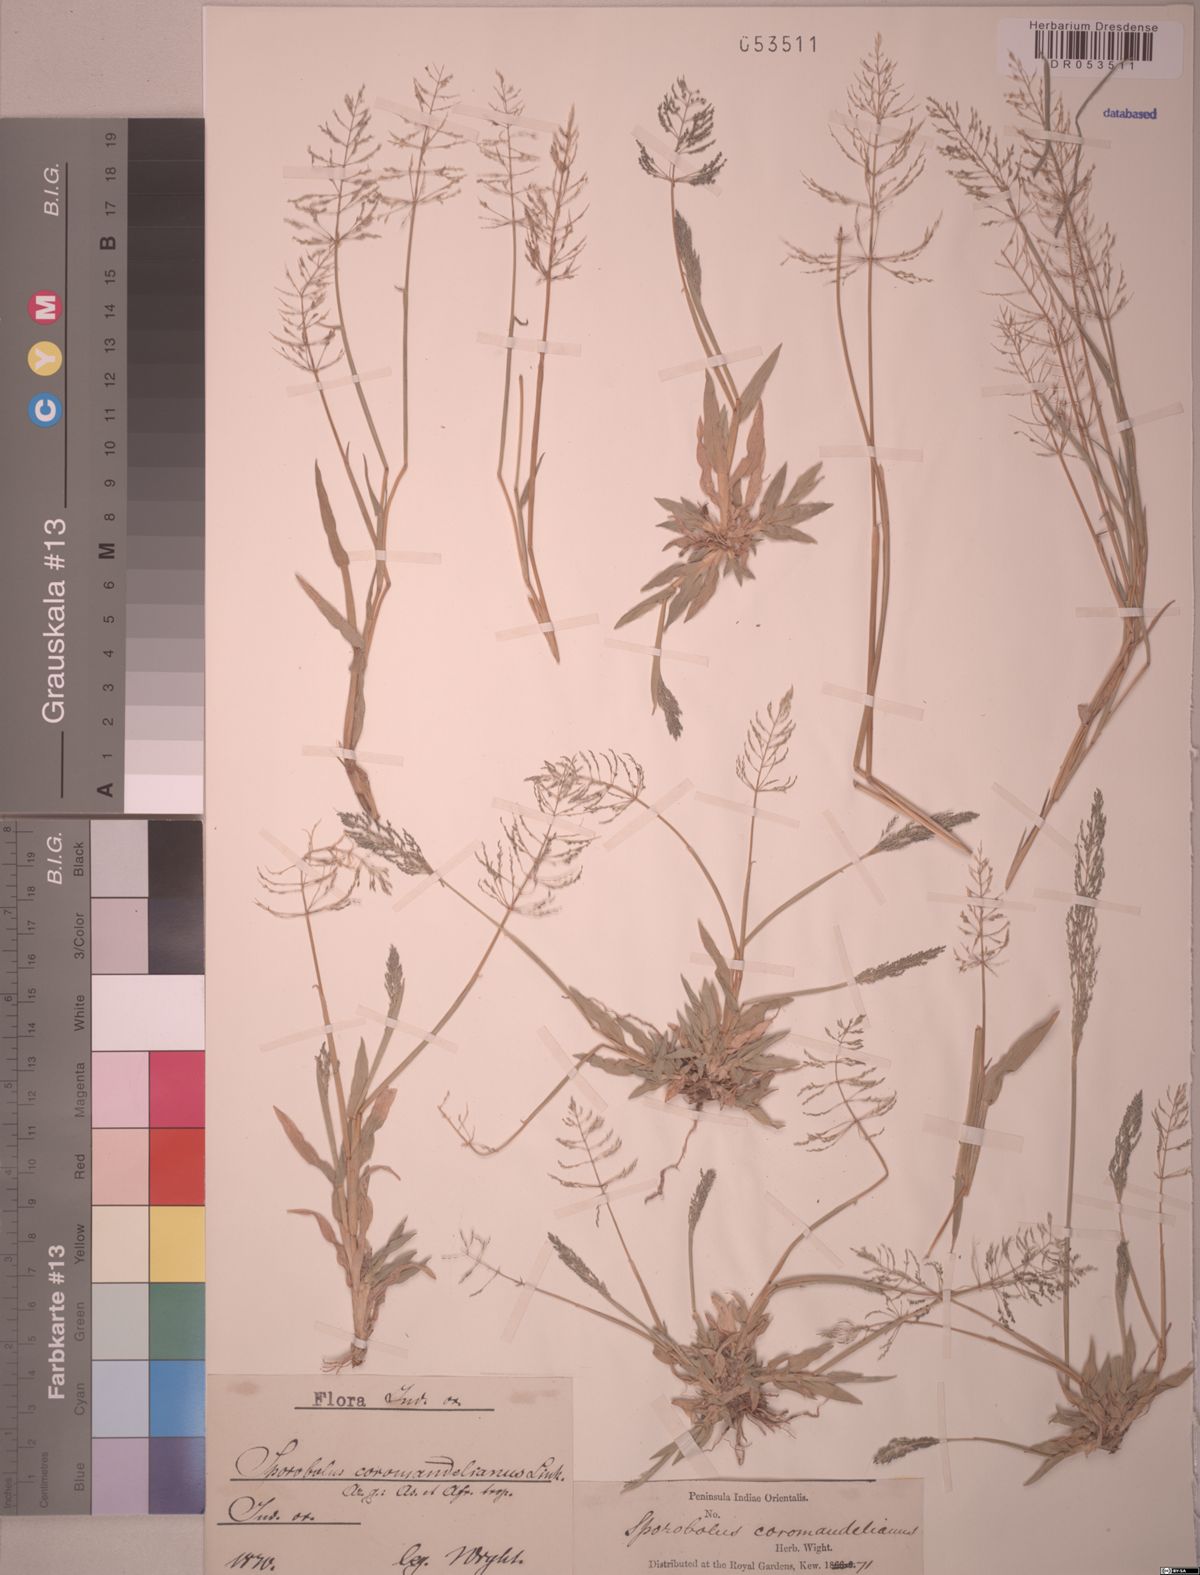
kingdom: Plantae
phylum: Tracheophyta
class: Liliopsida
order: Poales
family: Poaceae
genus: Sporobolus
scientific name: Sporobolus coromandelianus
